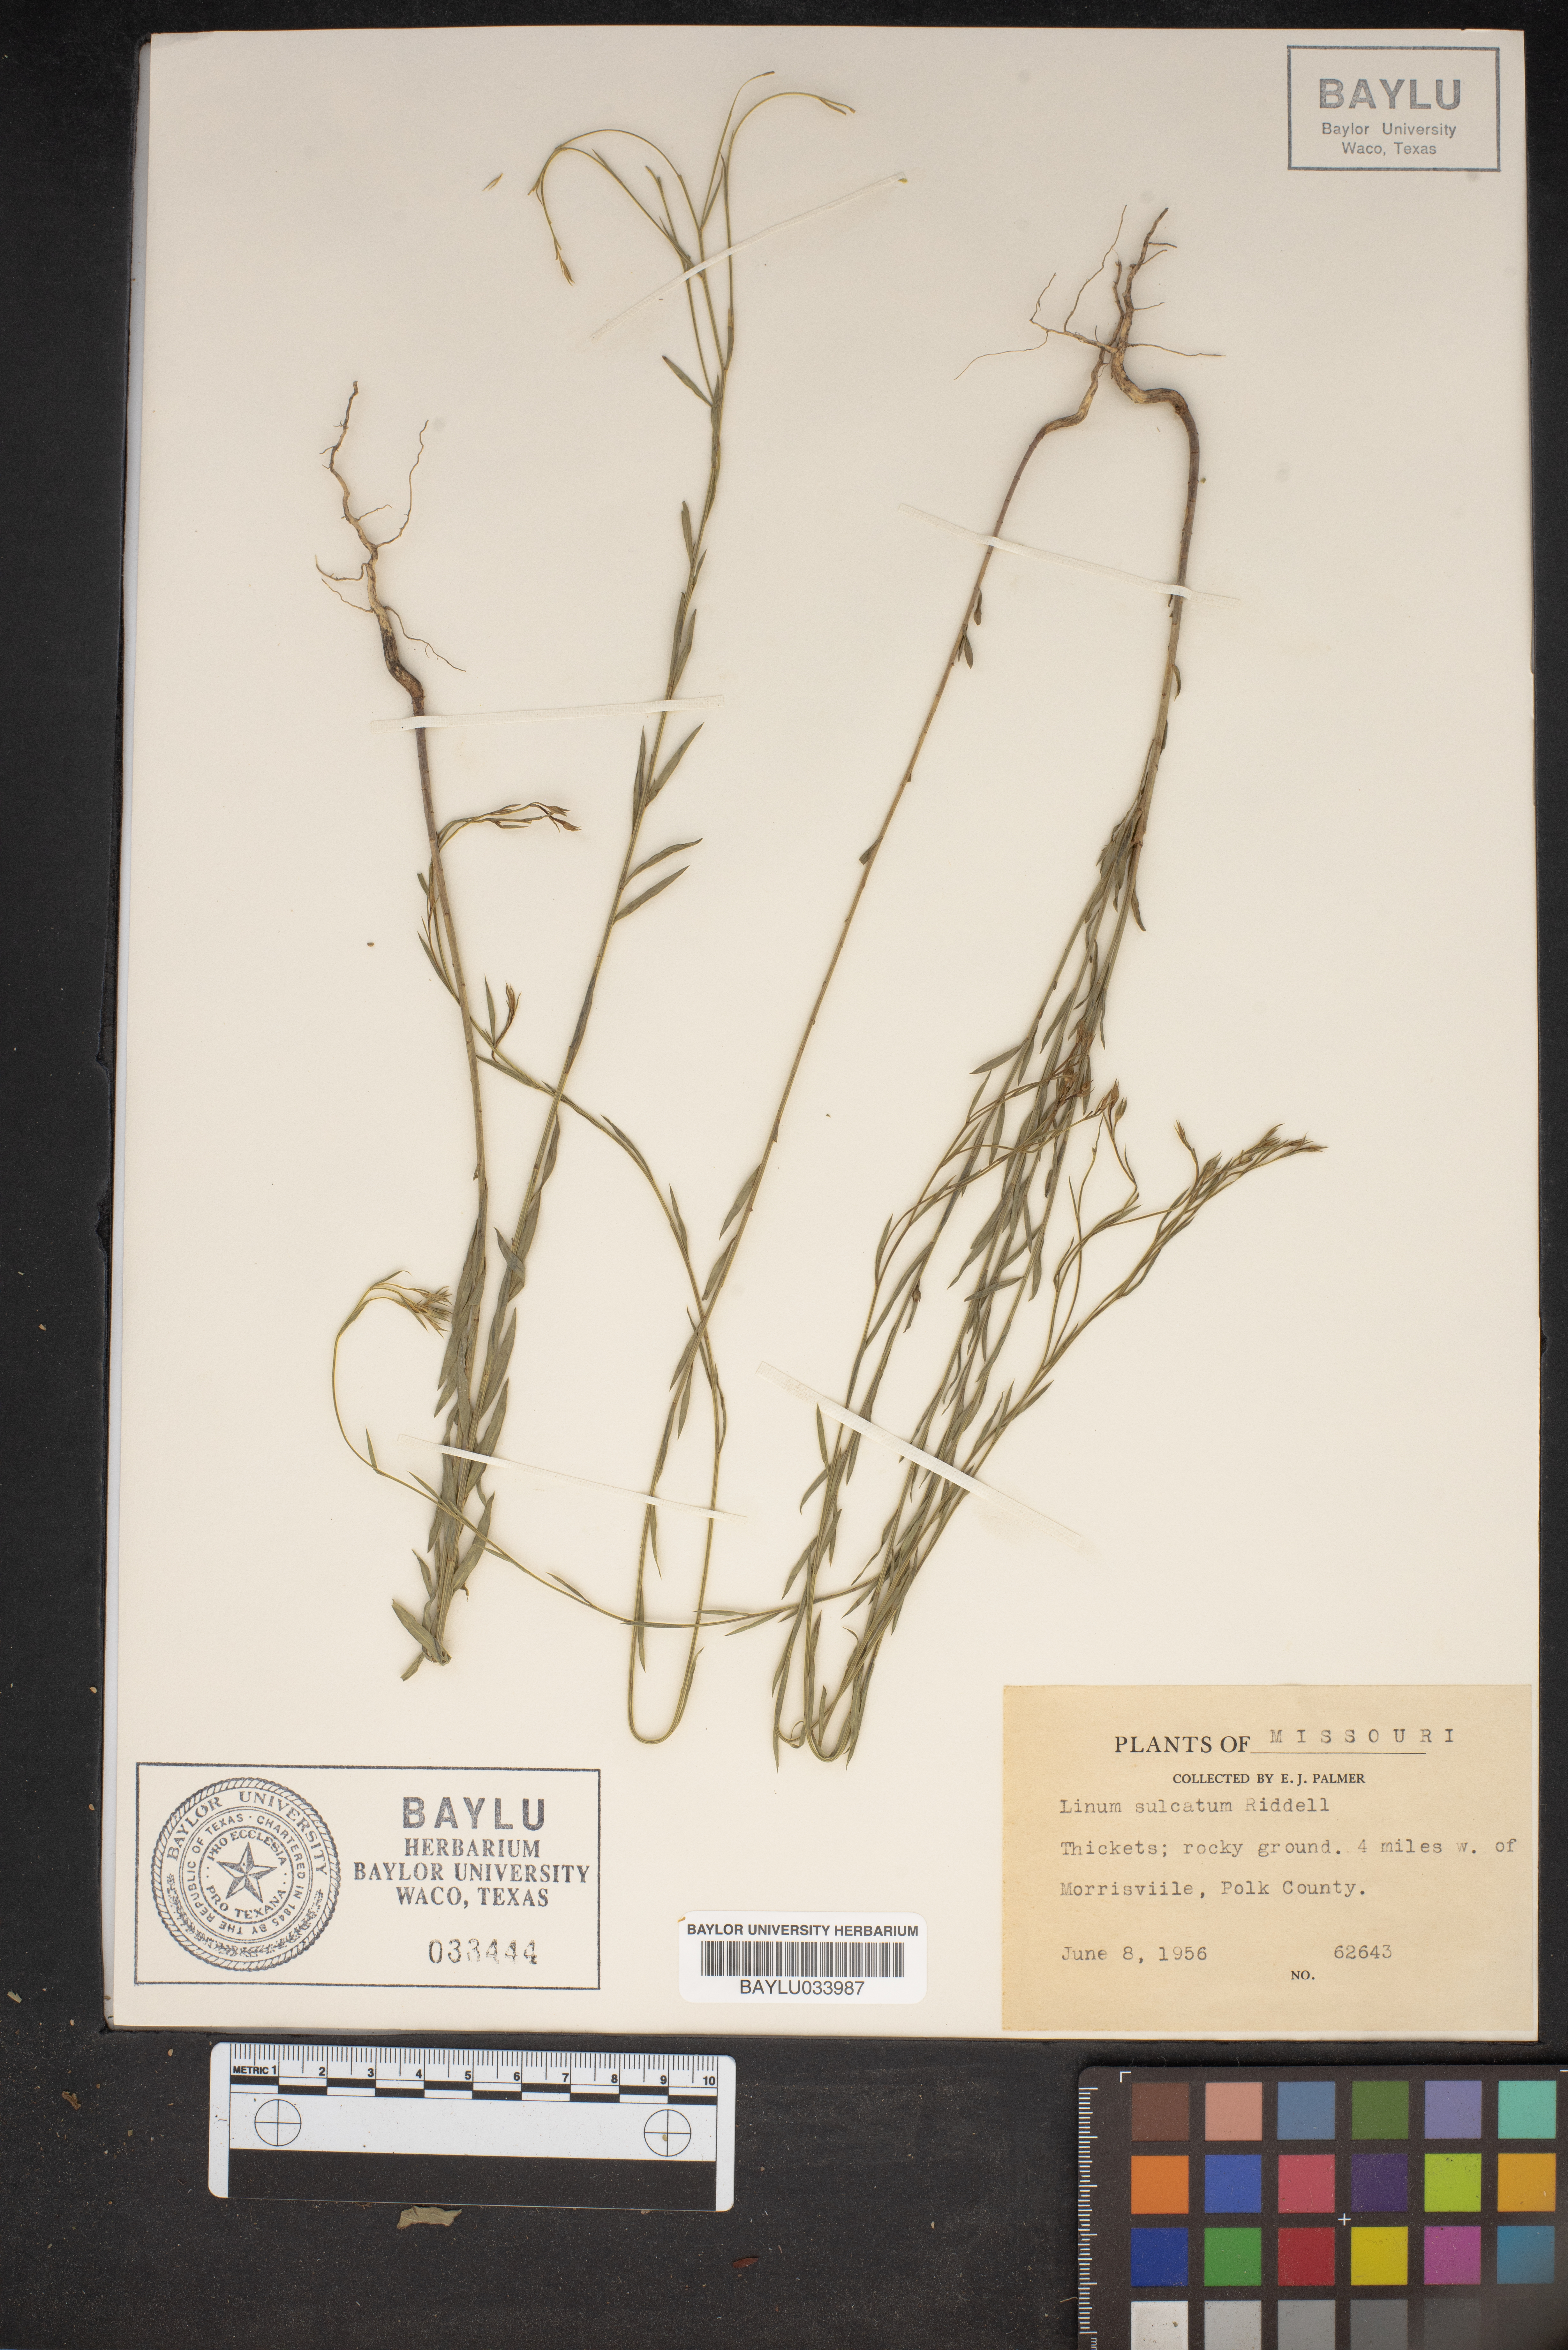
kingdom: Plantae
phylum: Tracheophyta
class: Magnoliopsida
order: Malpighiales
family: Linaceae
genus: Linum
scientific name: Linum sulcatum
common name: Grooved flax
